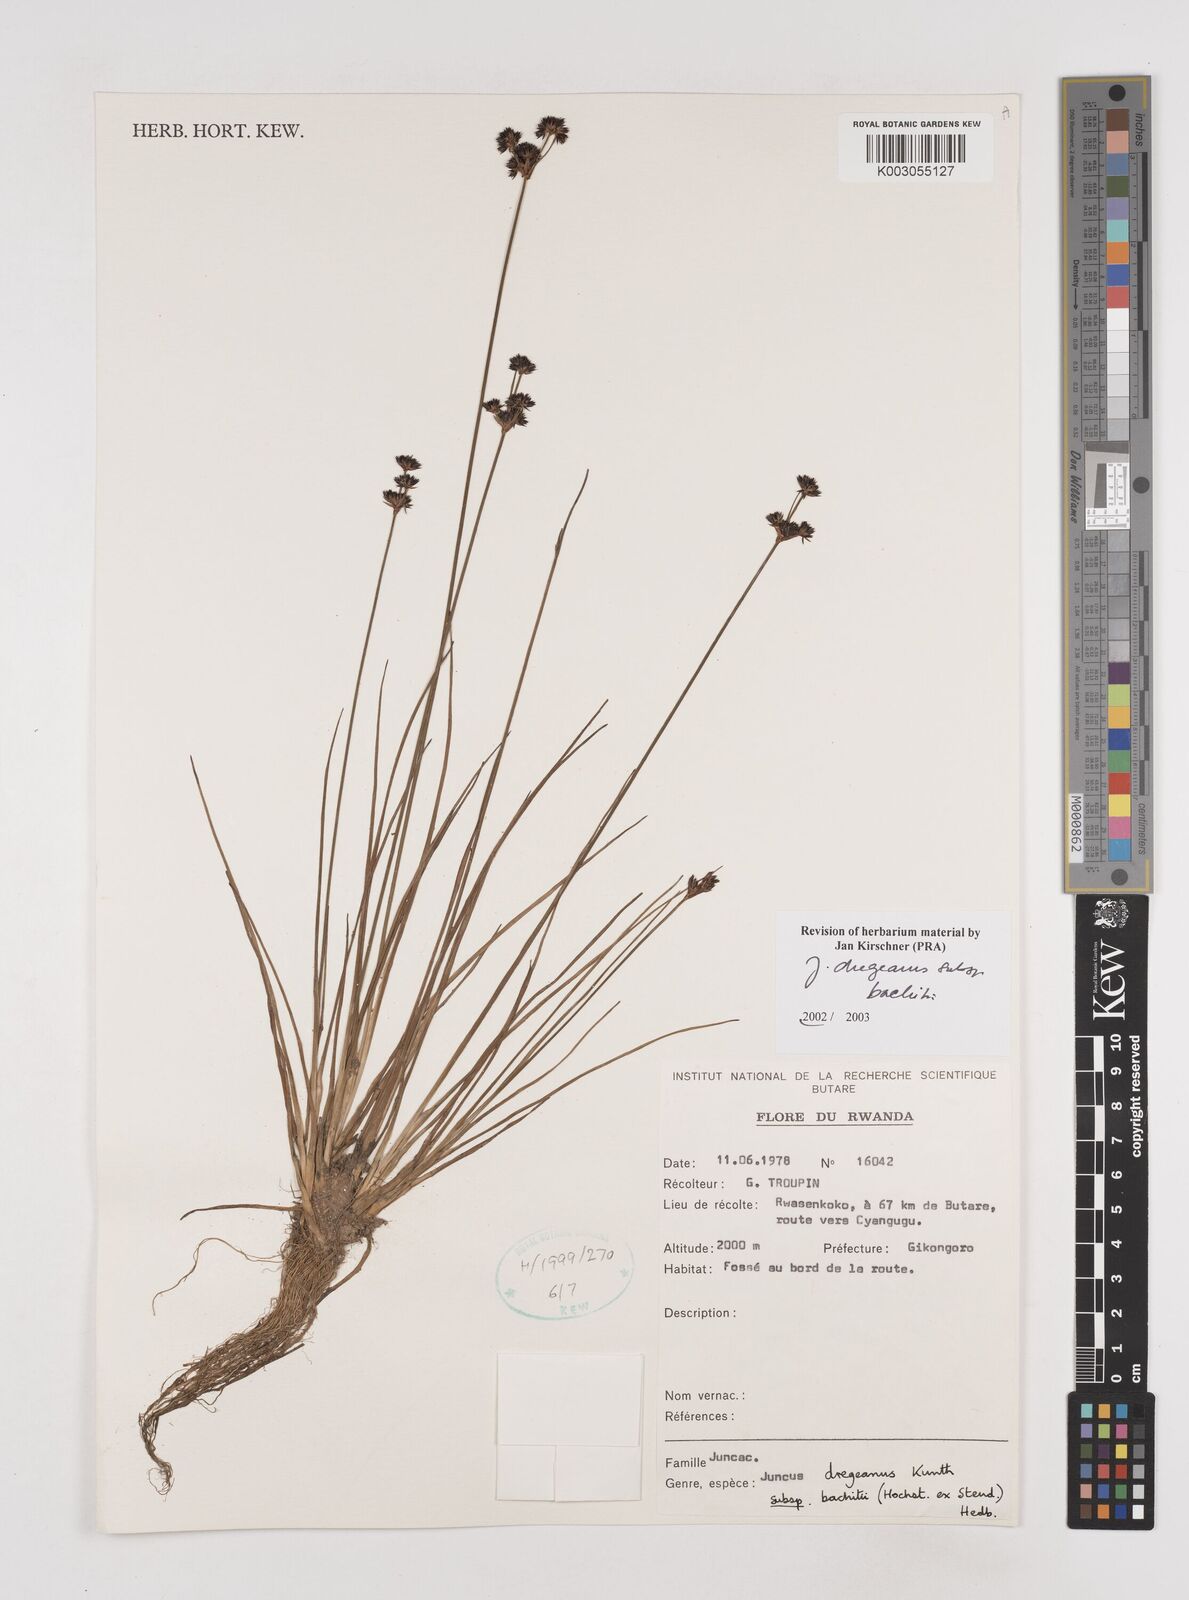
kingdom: Plantae
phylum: Tracheophyta
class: Liliopsida
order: Poales
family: Juncaceae
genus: Juncus
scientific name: Juncus dregeanus
